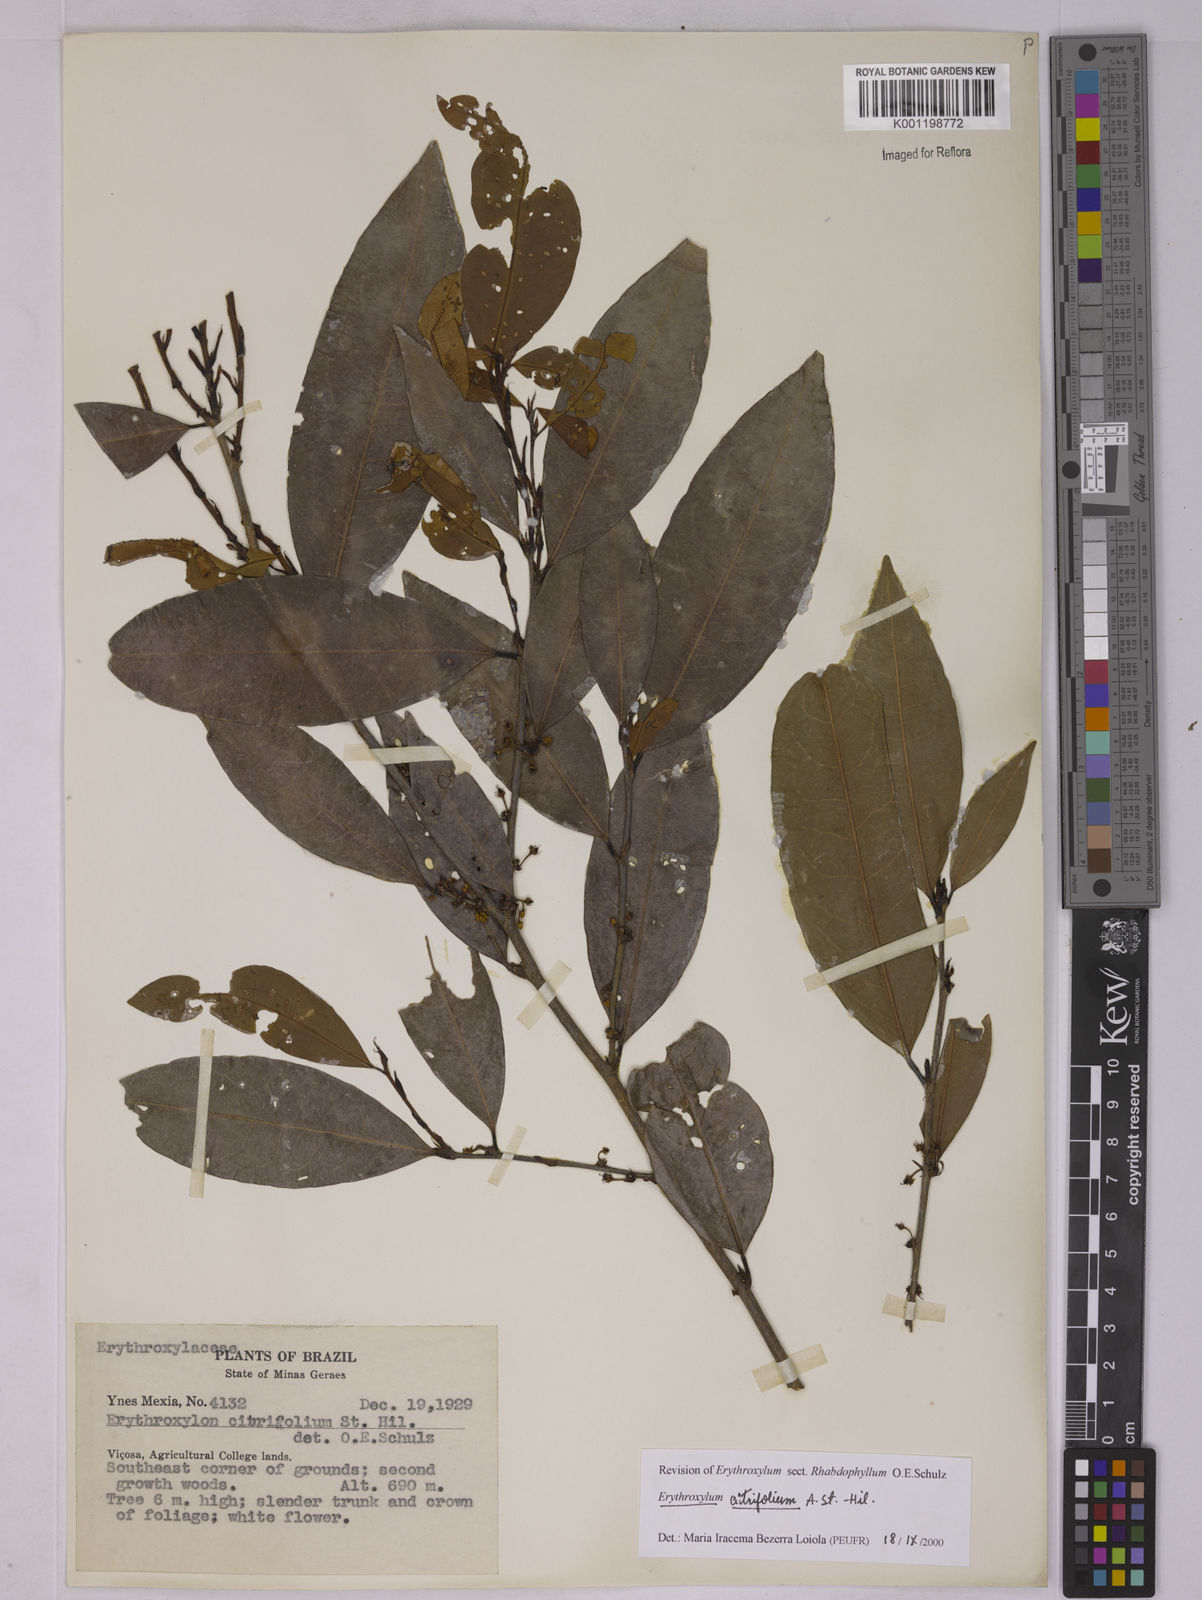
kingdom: Plantae
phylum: Tracheophyta
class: Magnoliopsida
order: Malpighiales
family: Erythroxylaceae
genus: Erythroxylum
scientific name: Erythroxylum citrifolium
